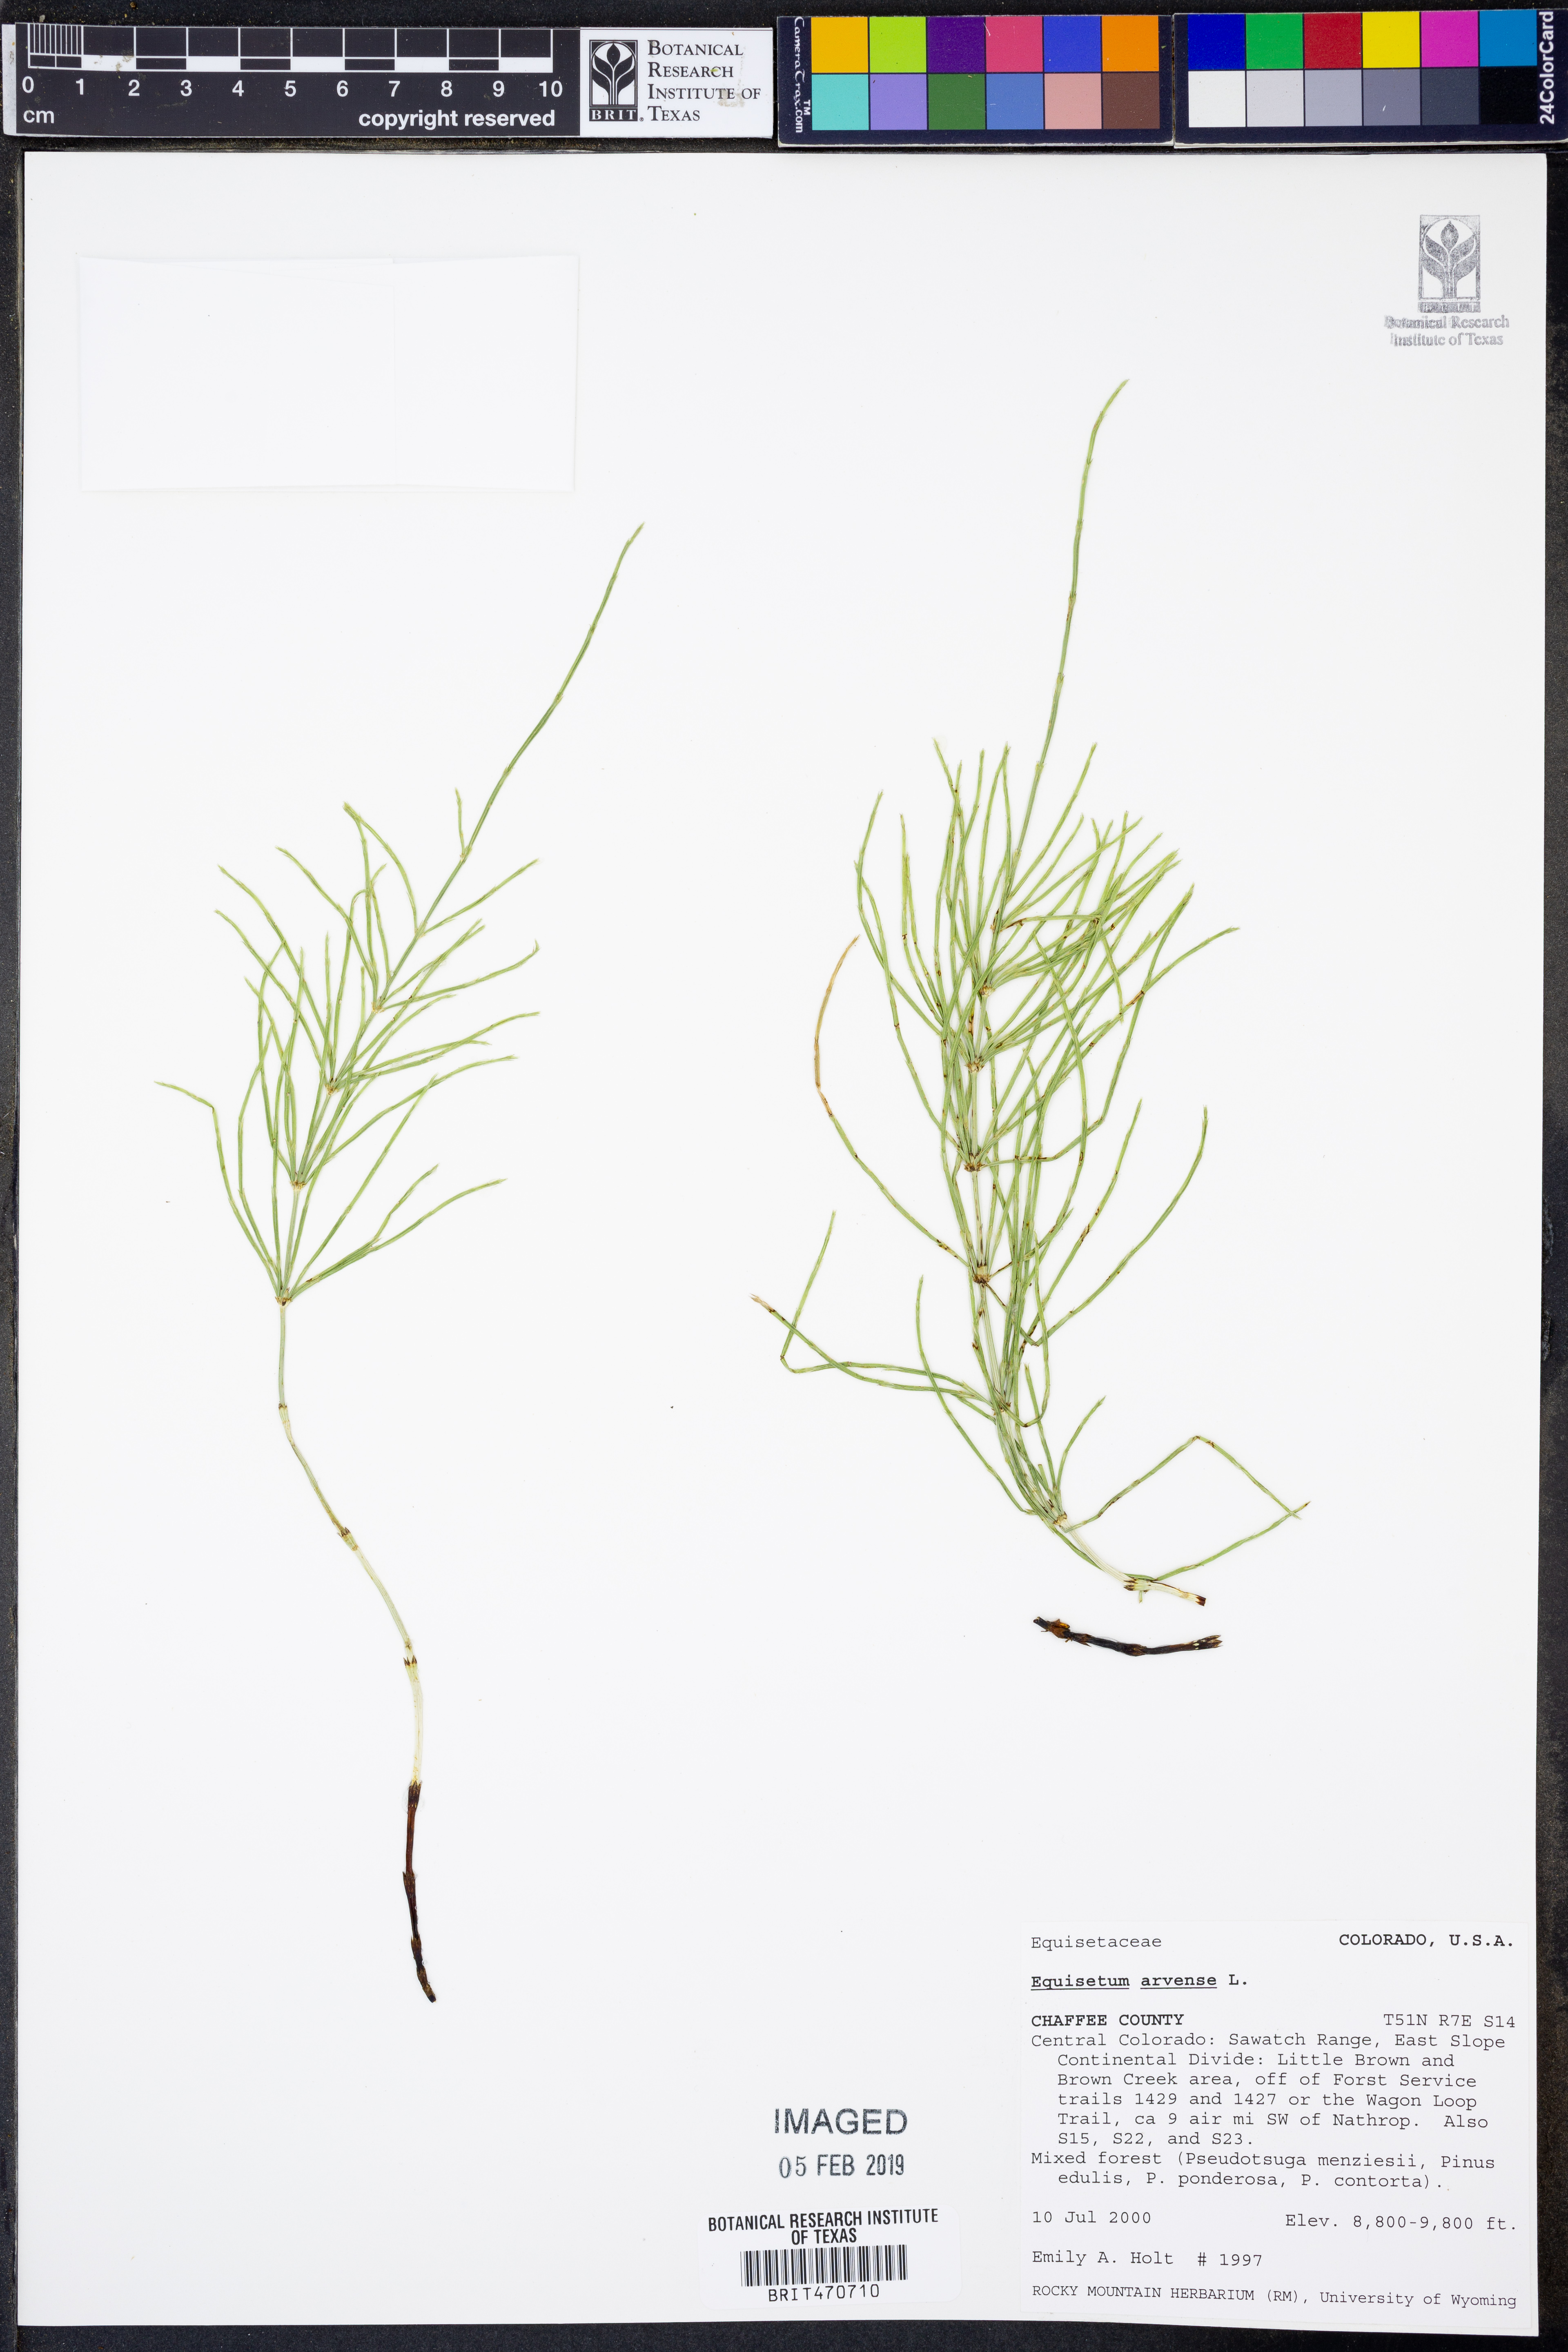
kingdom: Plantae
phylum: Tracheophyta
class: Polypodiopsida
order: Equisetales
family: Equisetaceae
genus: Equisetum
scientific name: Equisetum arvense
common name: Field horsetail
